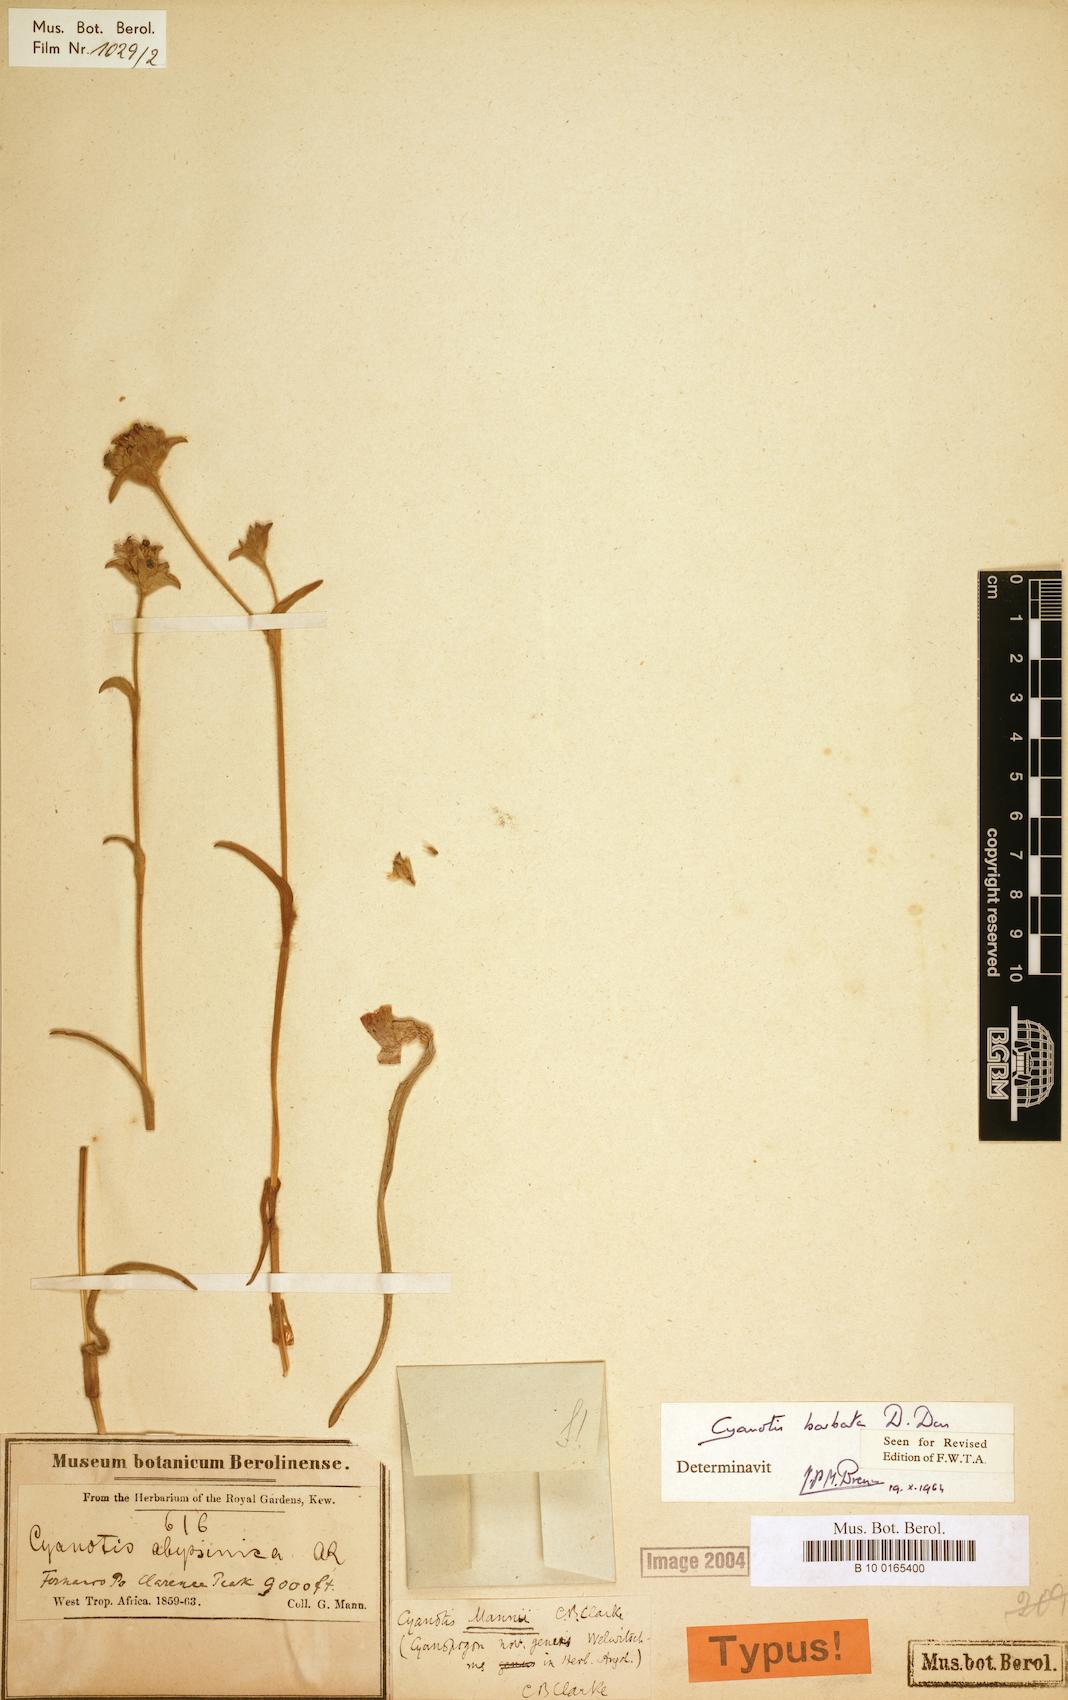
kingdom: Plantae
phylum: Tracheophyta
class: Liliopsida
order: Commelinales
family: Commelinaceae
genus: Cyanotis
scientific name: Cyanotis vaga
